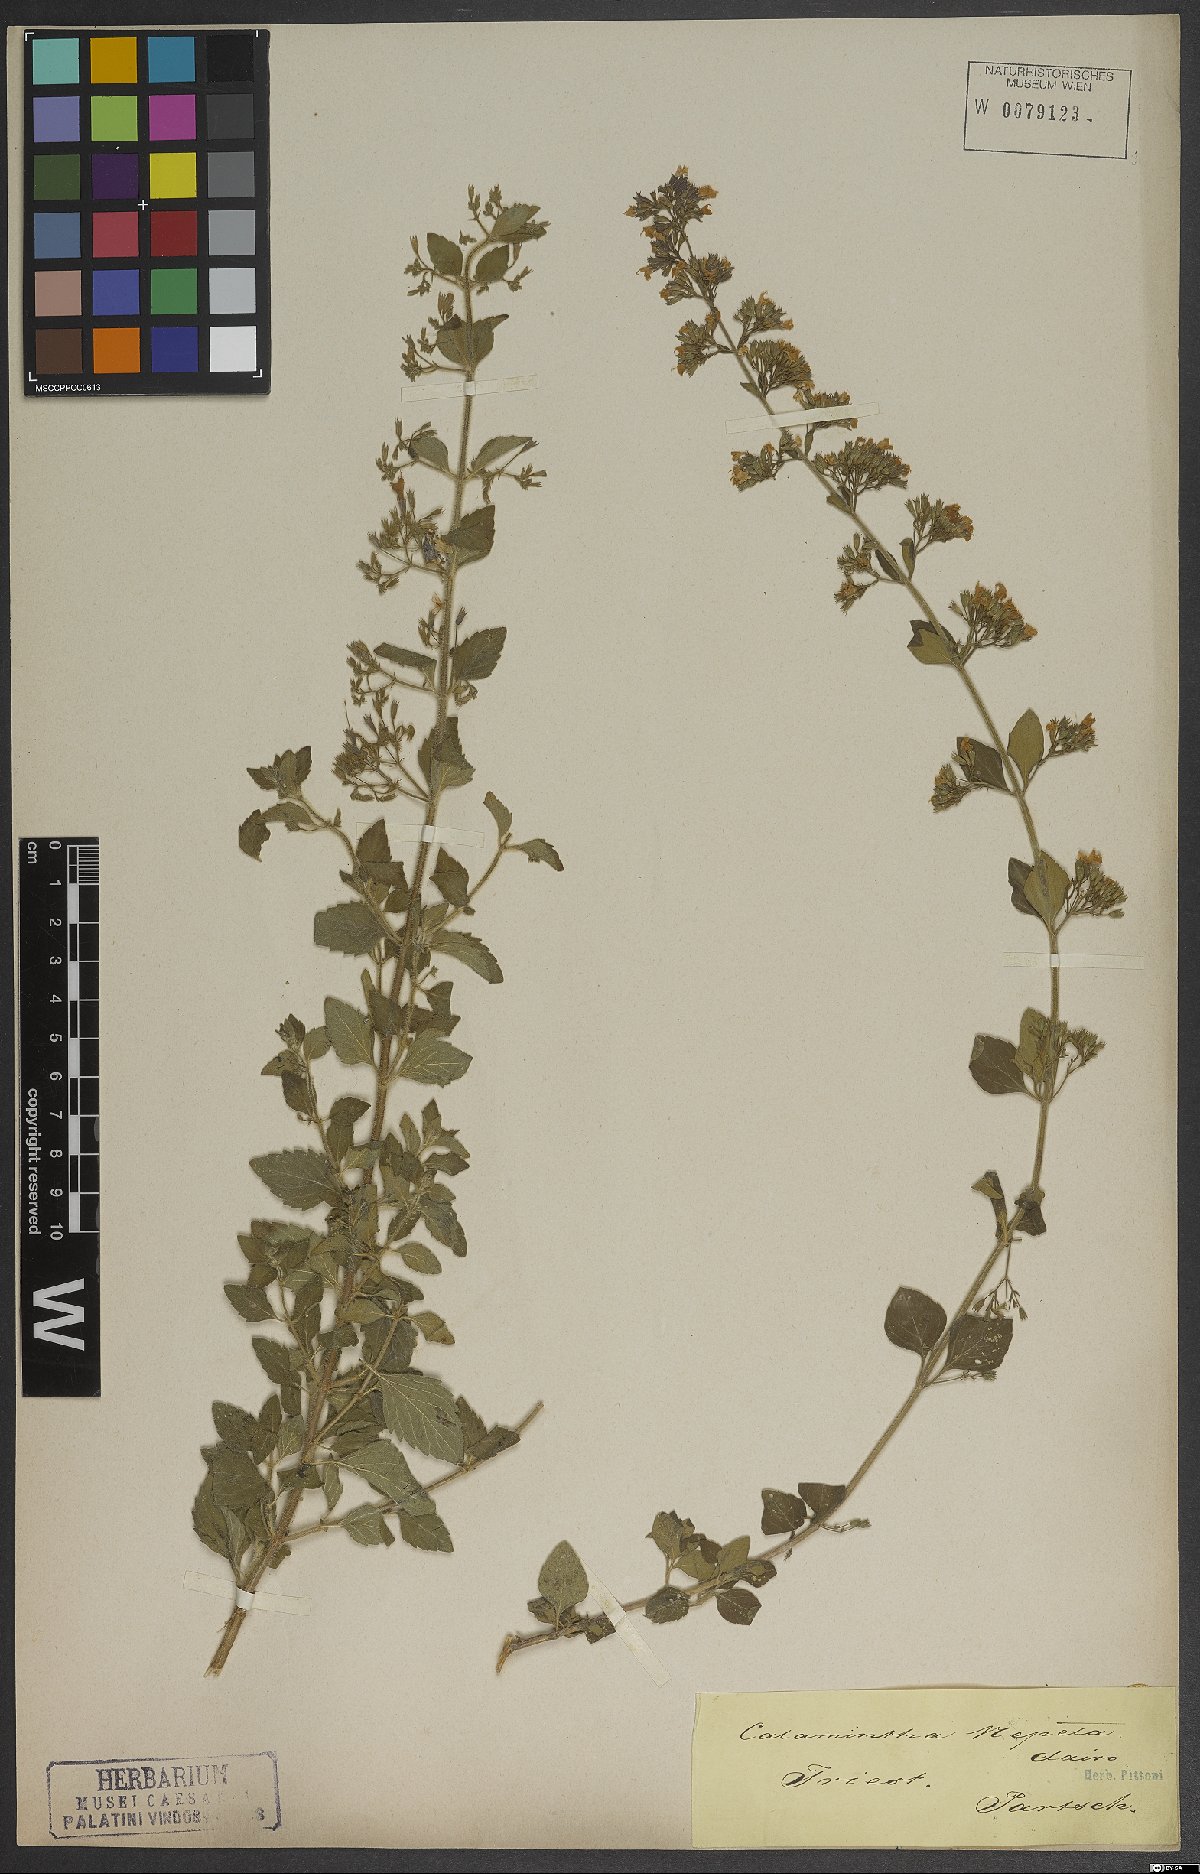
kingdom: Plantae
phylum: Tracheophyta
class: Magnoliopsida
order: Lamiales
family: Lamiaceae
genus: Clinopodium
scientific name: Clinopodium nepeta
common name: Lesser calamint
